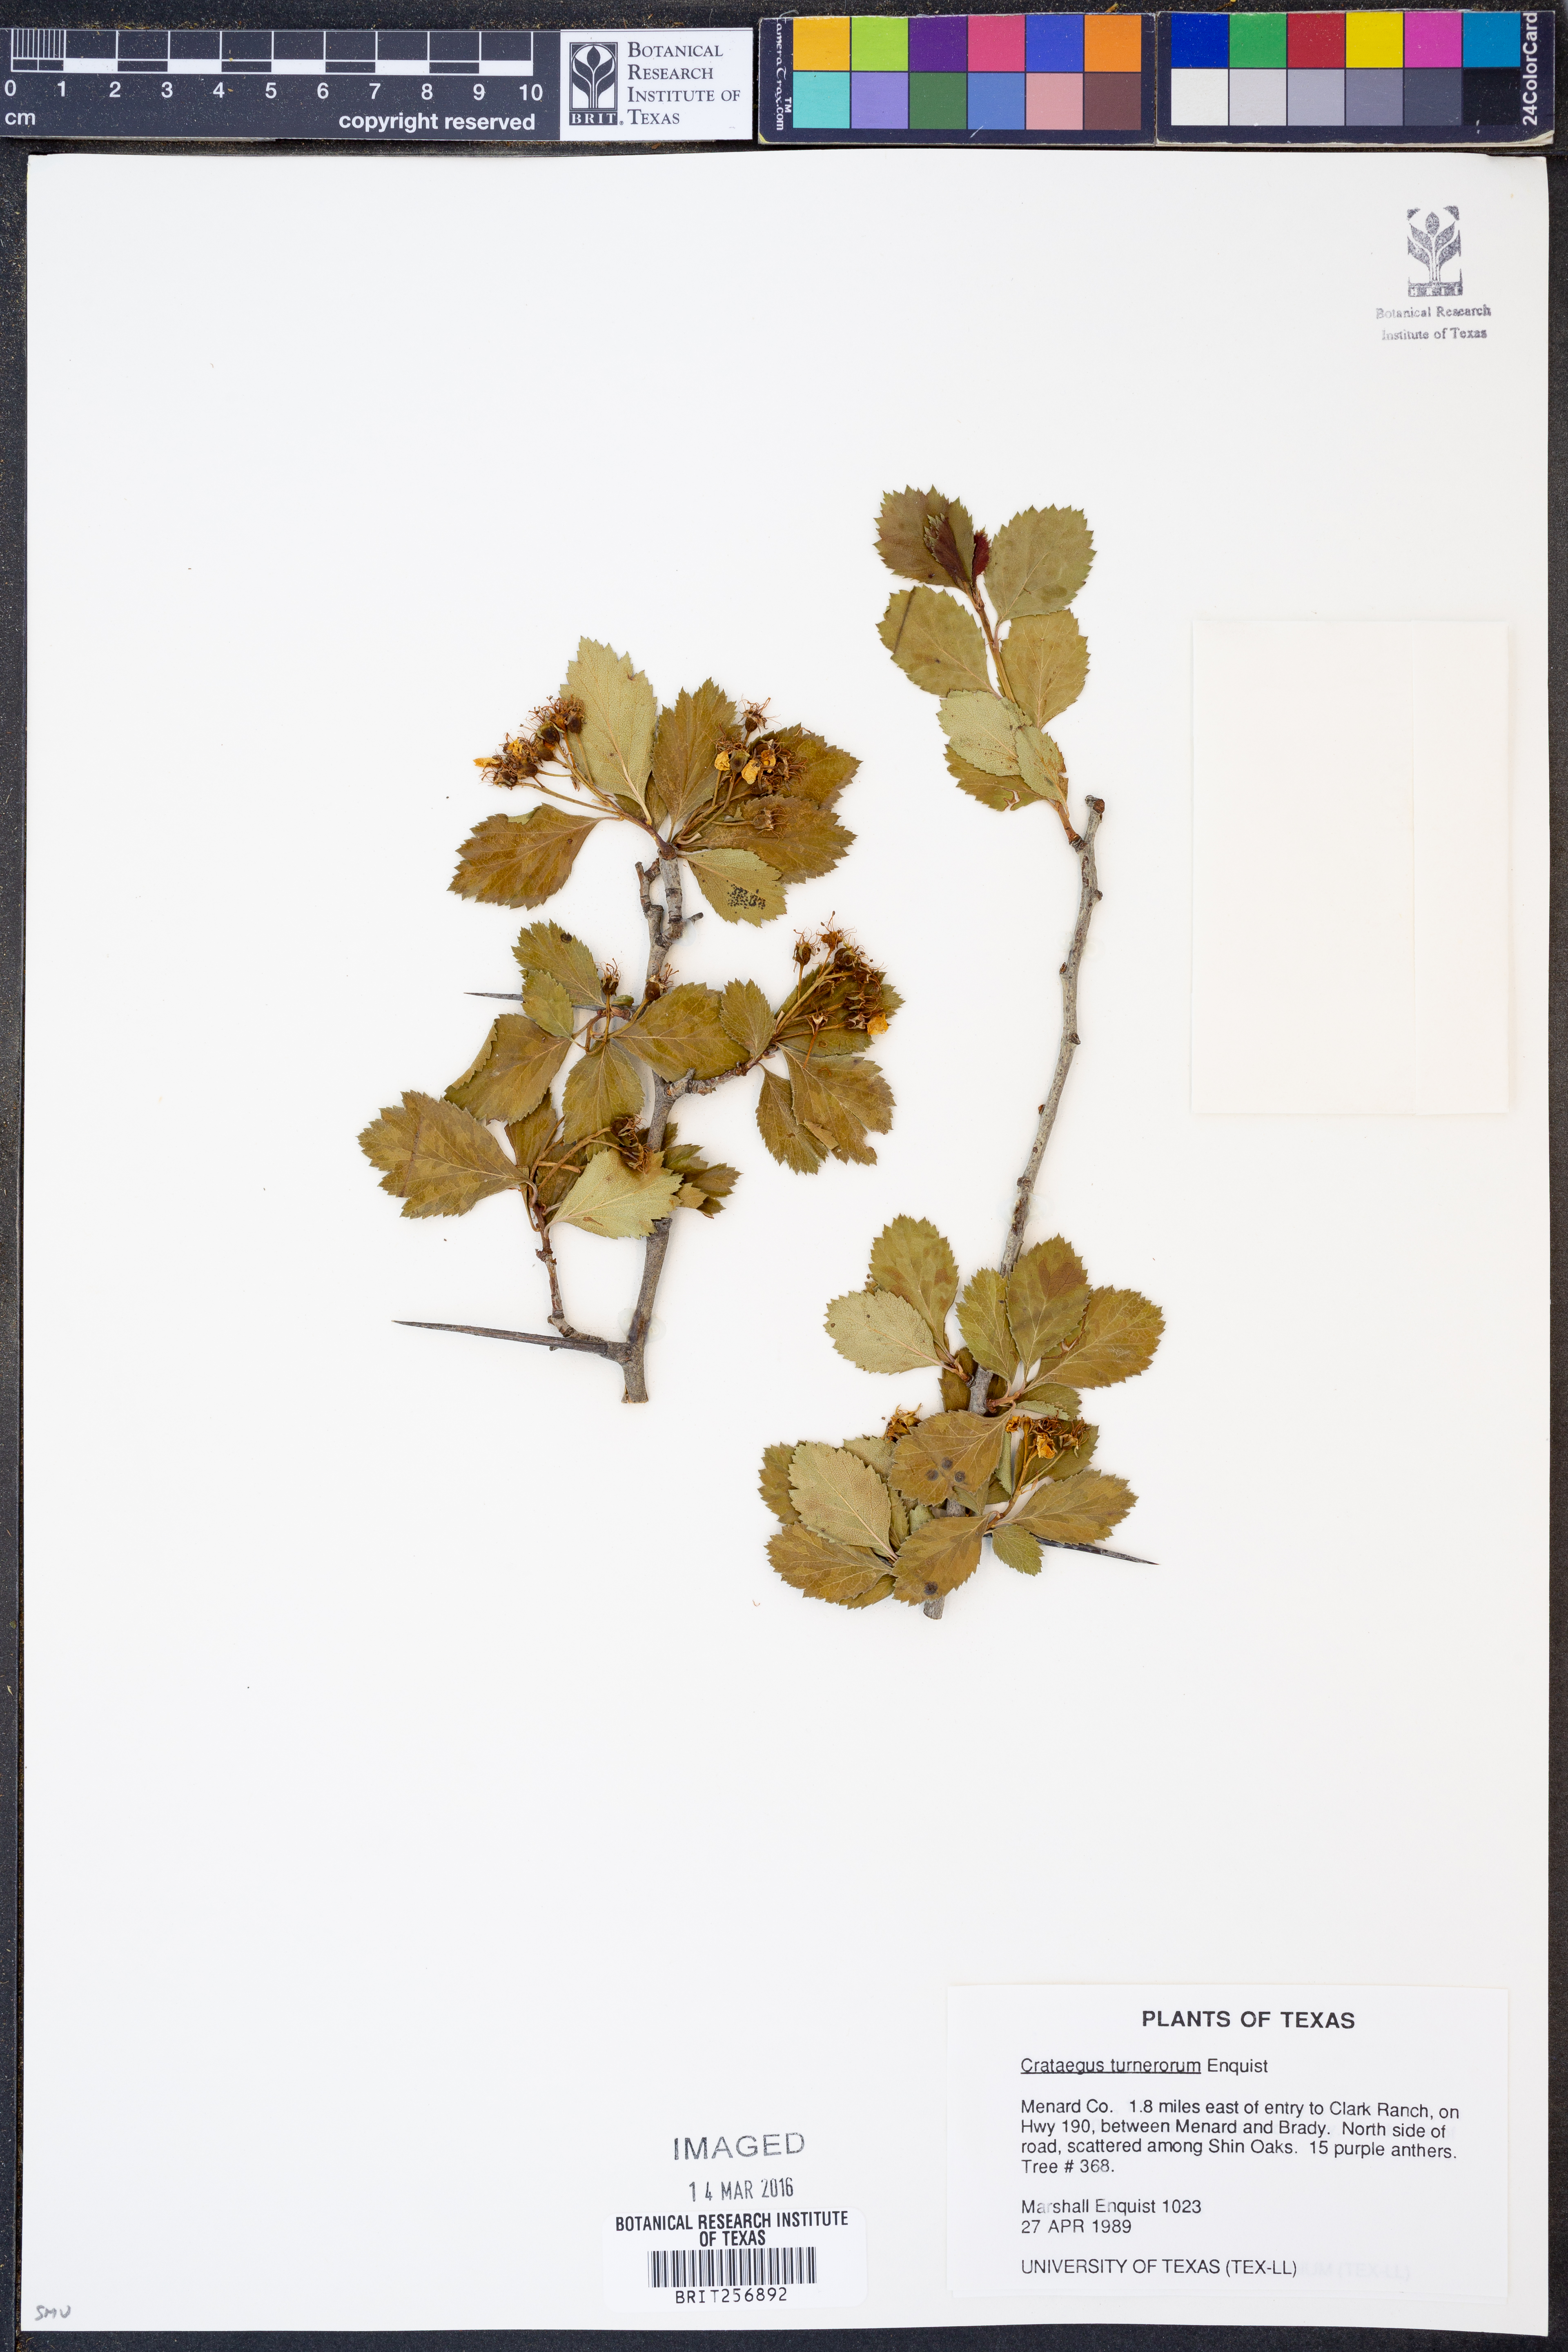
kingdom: Plantae
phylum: Tracheophyta
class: Magnoliopsida
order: Rosales
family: Rosaceae
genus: Crataegus
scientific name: Crataegus turnerorum
